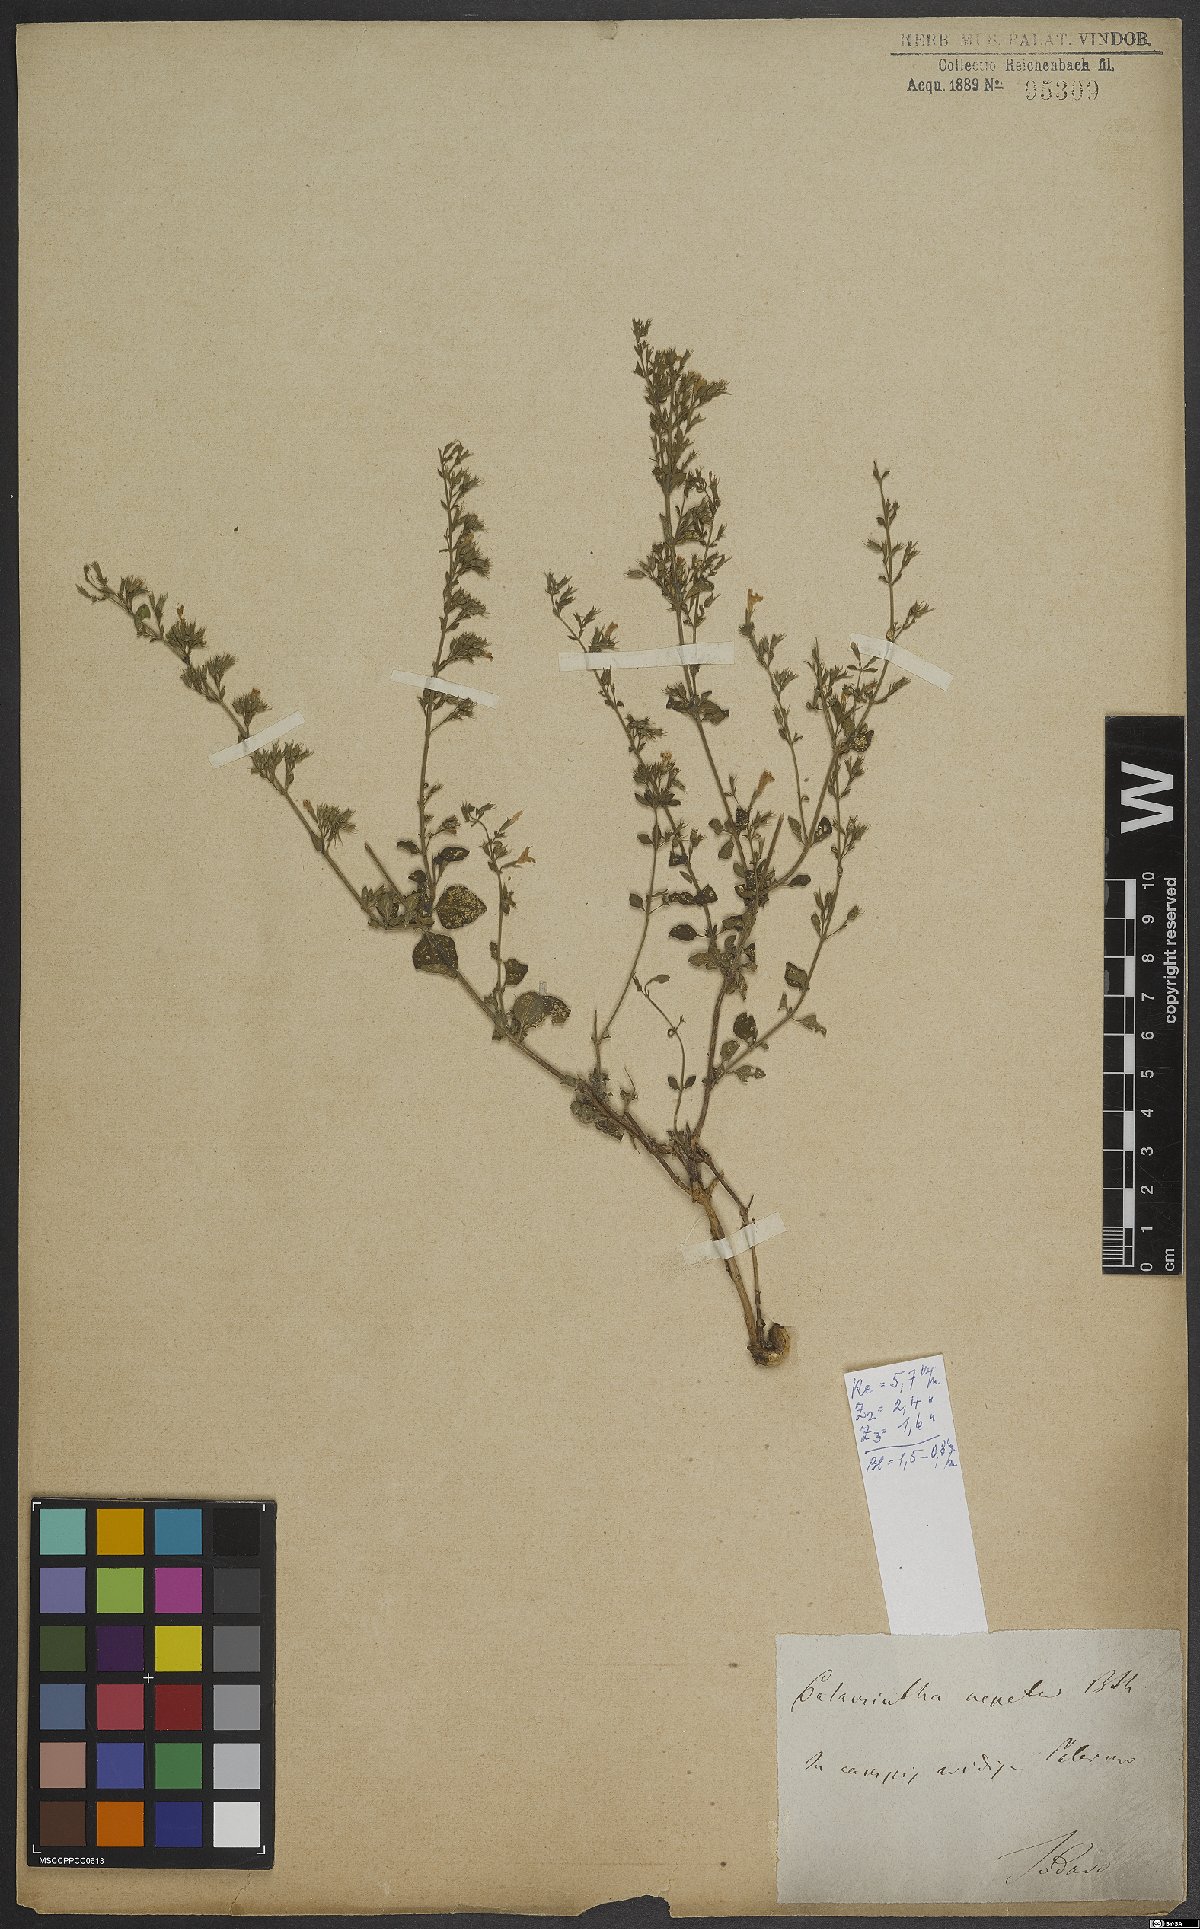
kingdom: Plantae
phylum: Tracheophyta
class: Magnoliopsida
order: Lamiales
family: Lamiaceae
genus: Clinopodium
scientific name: Clinopodium nepeta
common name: Lesser calamint
